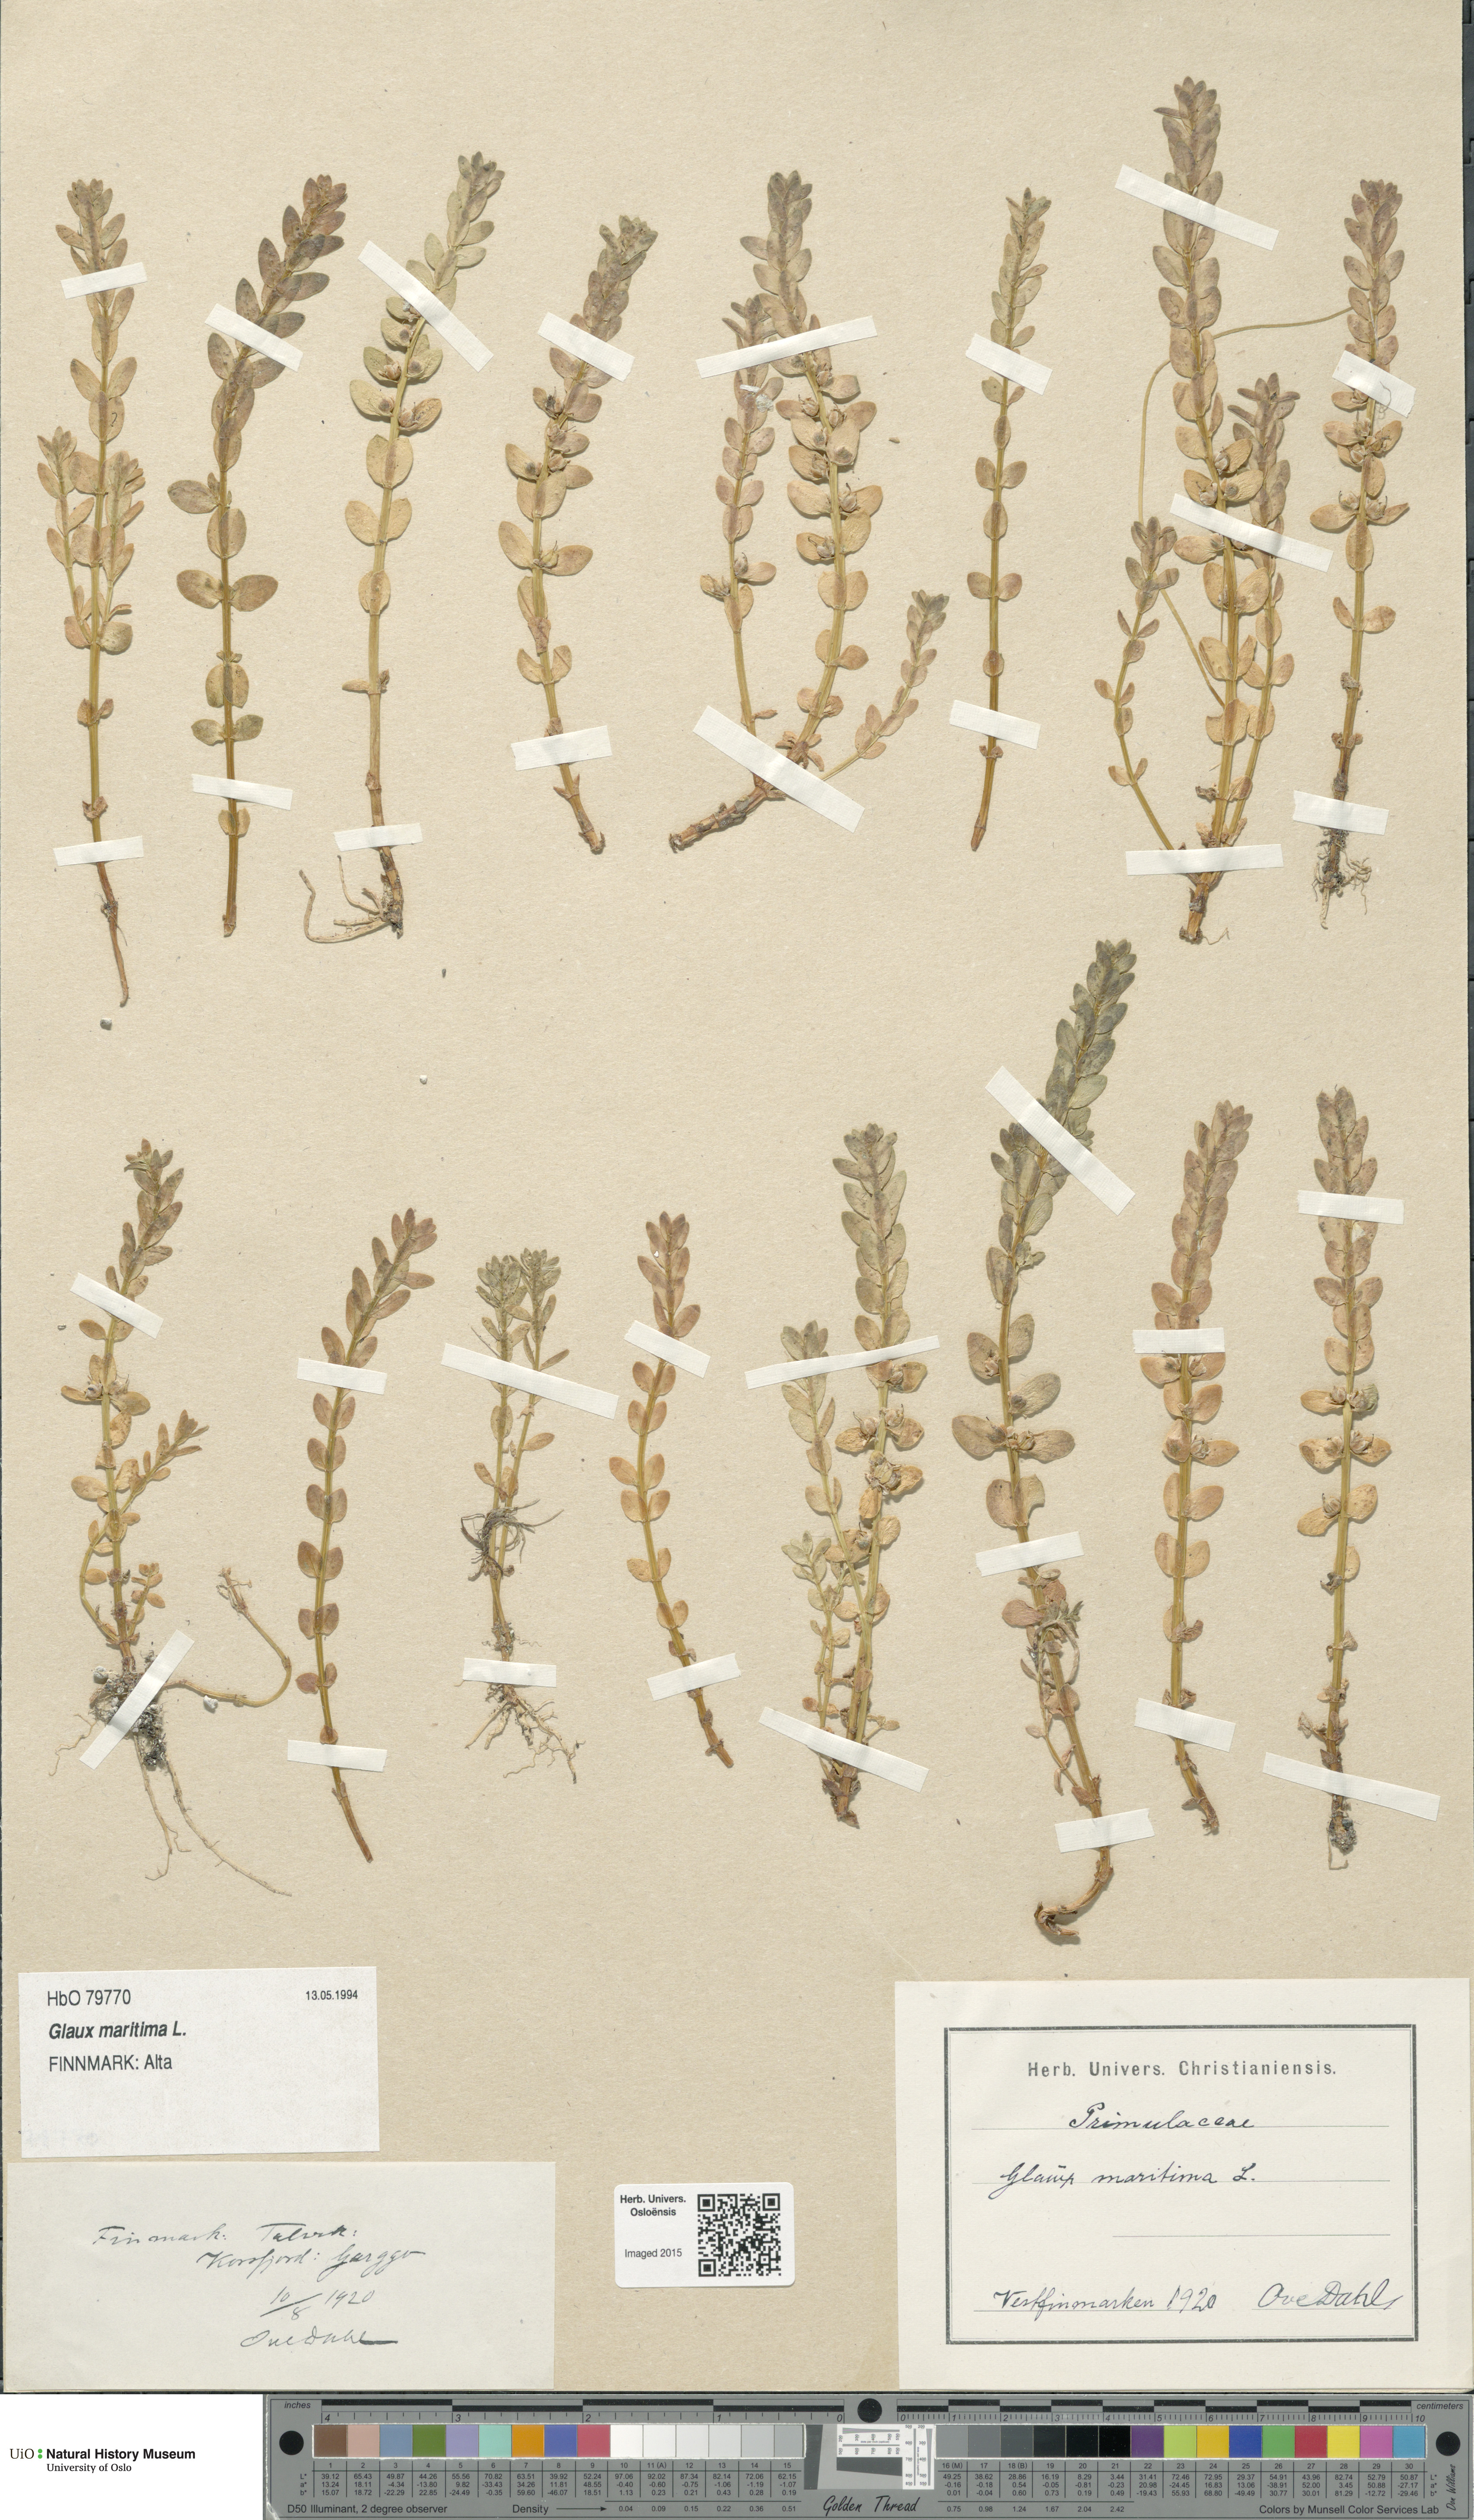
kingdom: Plantae
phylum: Tracheophyta
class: Magnoliopsida
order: Ericales
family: Primulaceae
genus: Lysimachia
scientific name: Lysimachia maritima
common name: Sea milkwort
